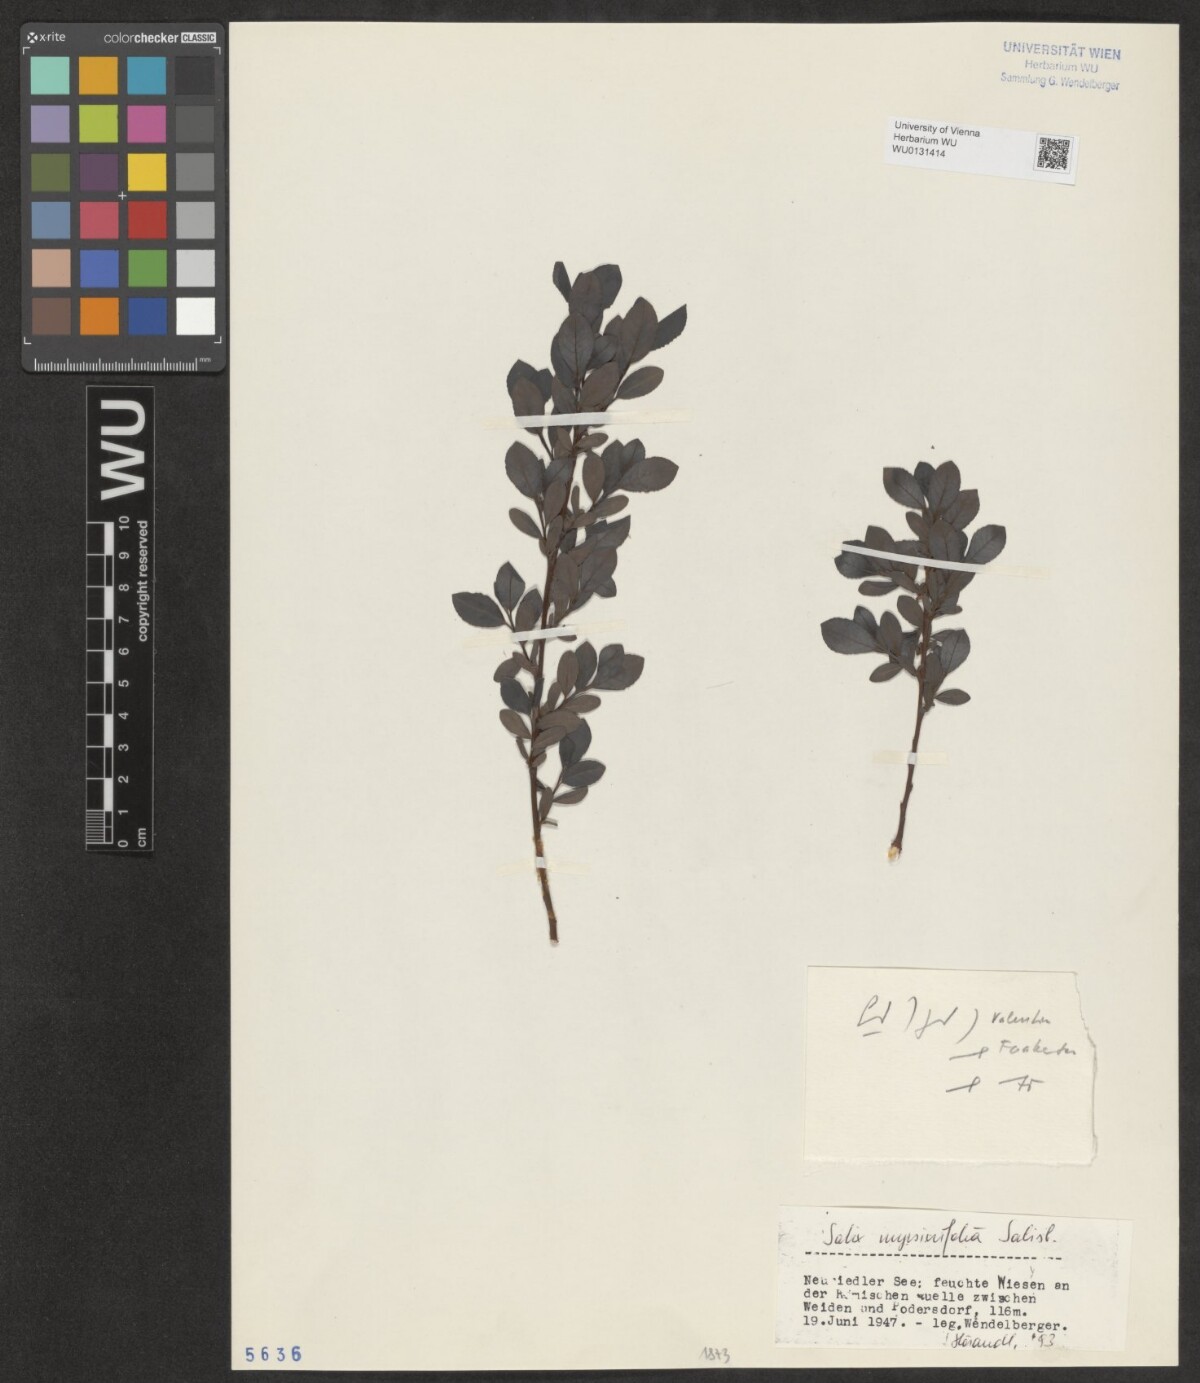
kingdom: Plantae
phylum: Tracheophyta
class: Magnoliopsida
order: Malpighiales
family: Salicaceae
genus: Salix
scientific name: Salix myrsinifolia
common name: Dark-leaved willow
